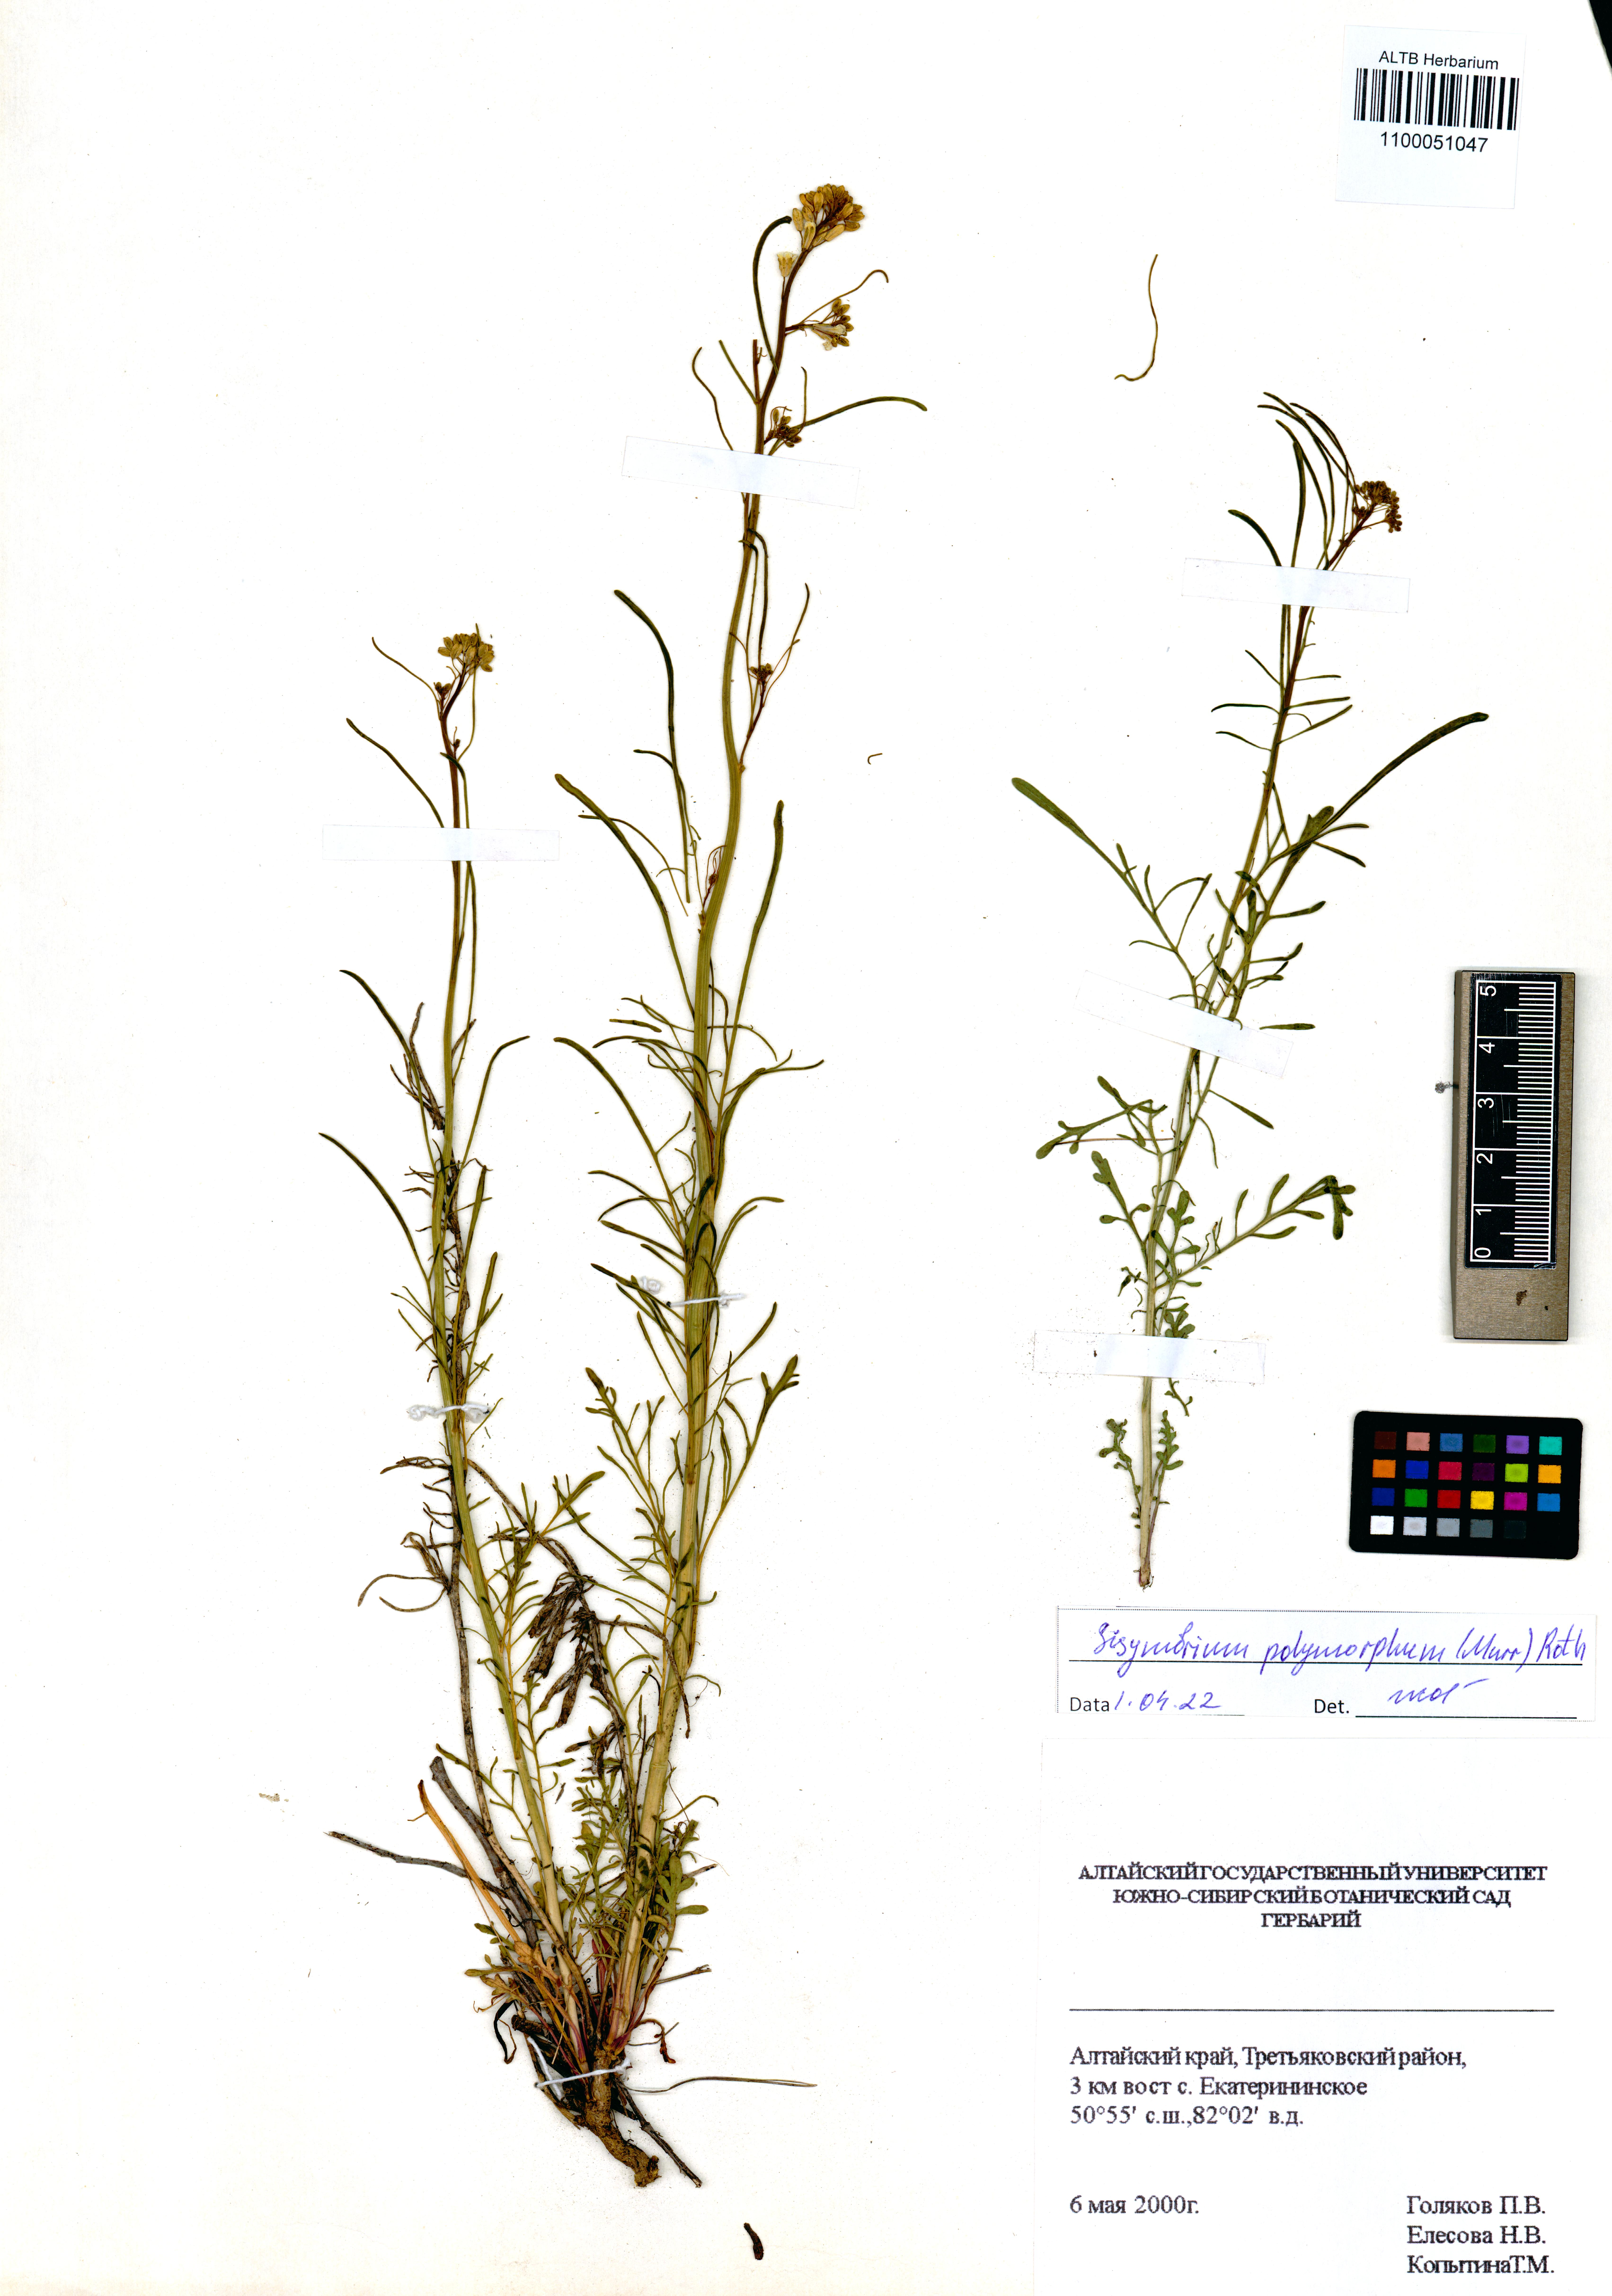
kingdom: Plantae
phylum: Tracheophyta
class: Magnoliopsida
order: Brassicales
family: Brassicaceae
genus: Sisymbrium
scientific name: Sisymbrium polymorphum
